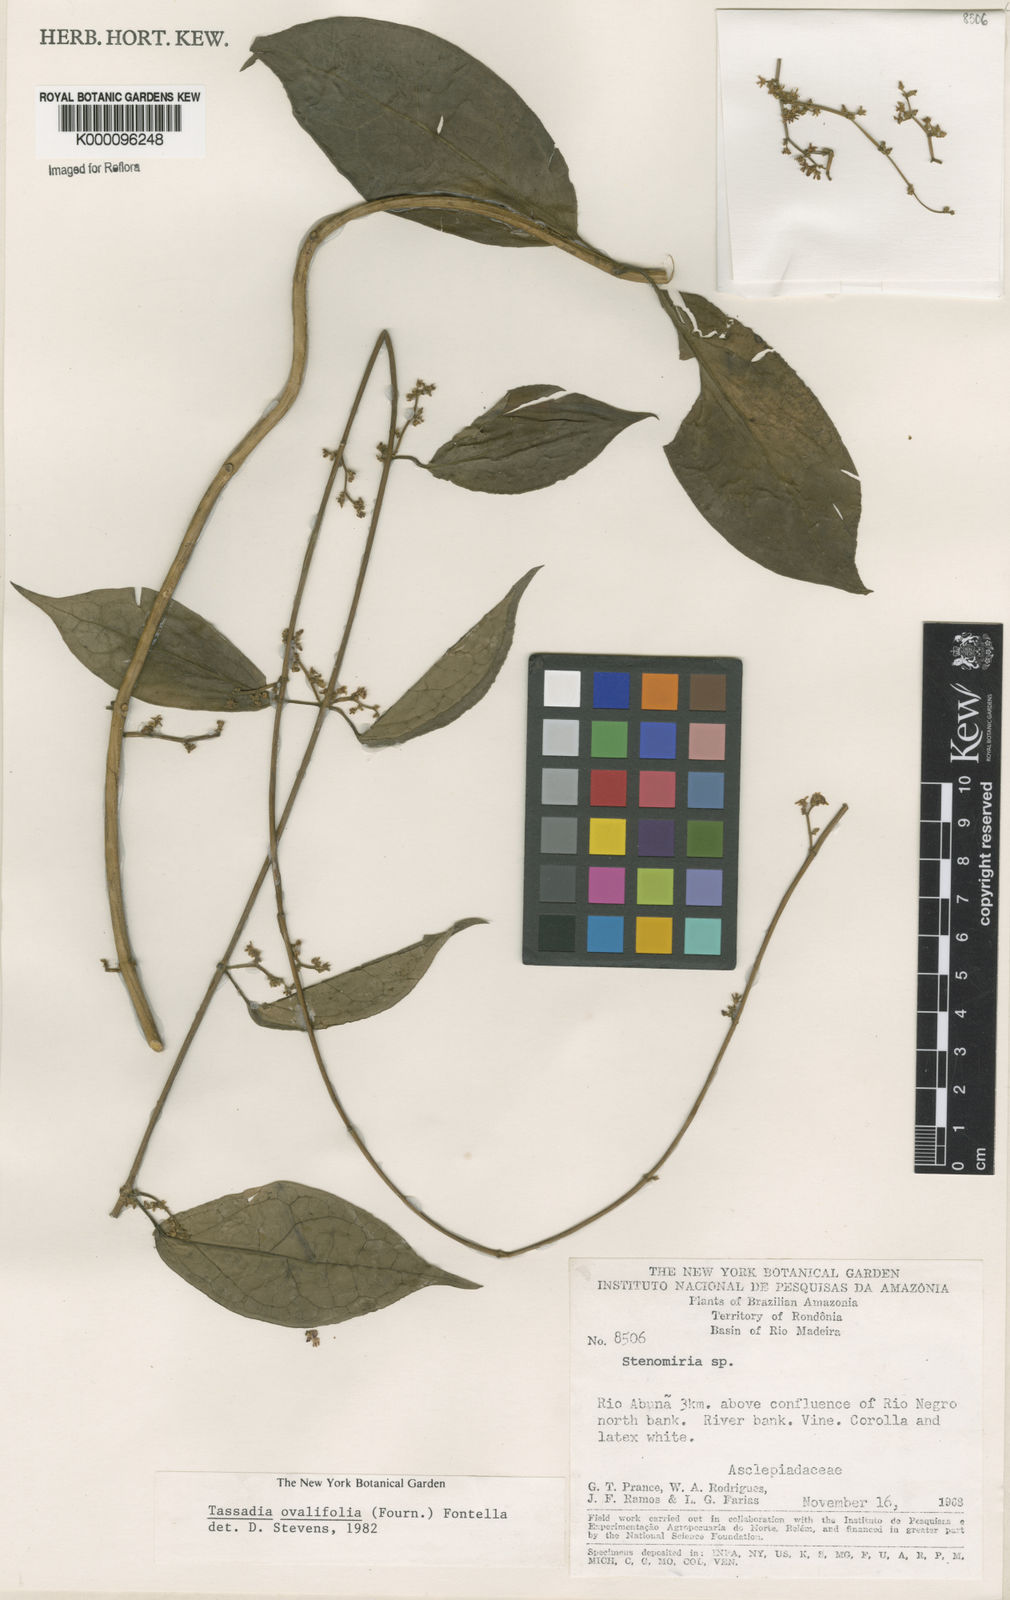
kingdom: Plantae
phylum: Tracheophyta
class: Magnoliopsida
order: Gentianales
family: Apocynaceae
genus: Tassadia
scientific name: Tassadia ovalifolia
